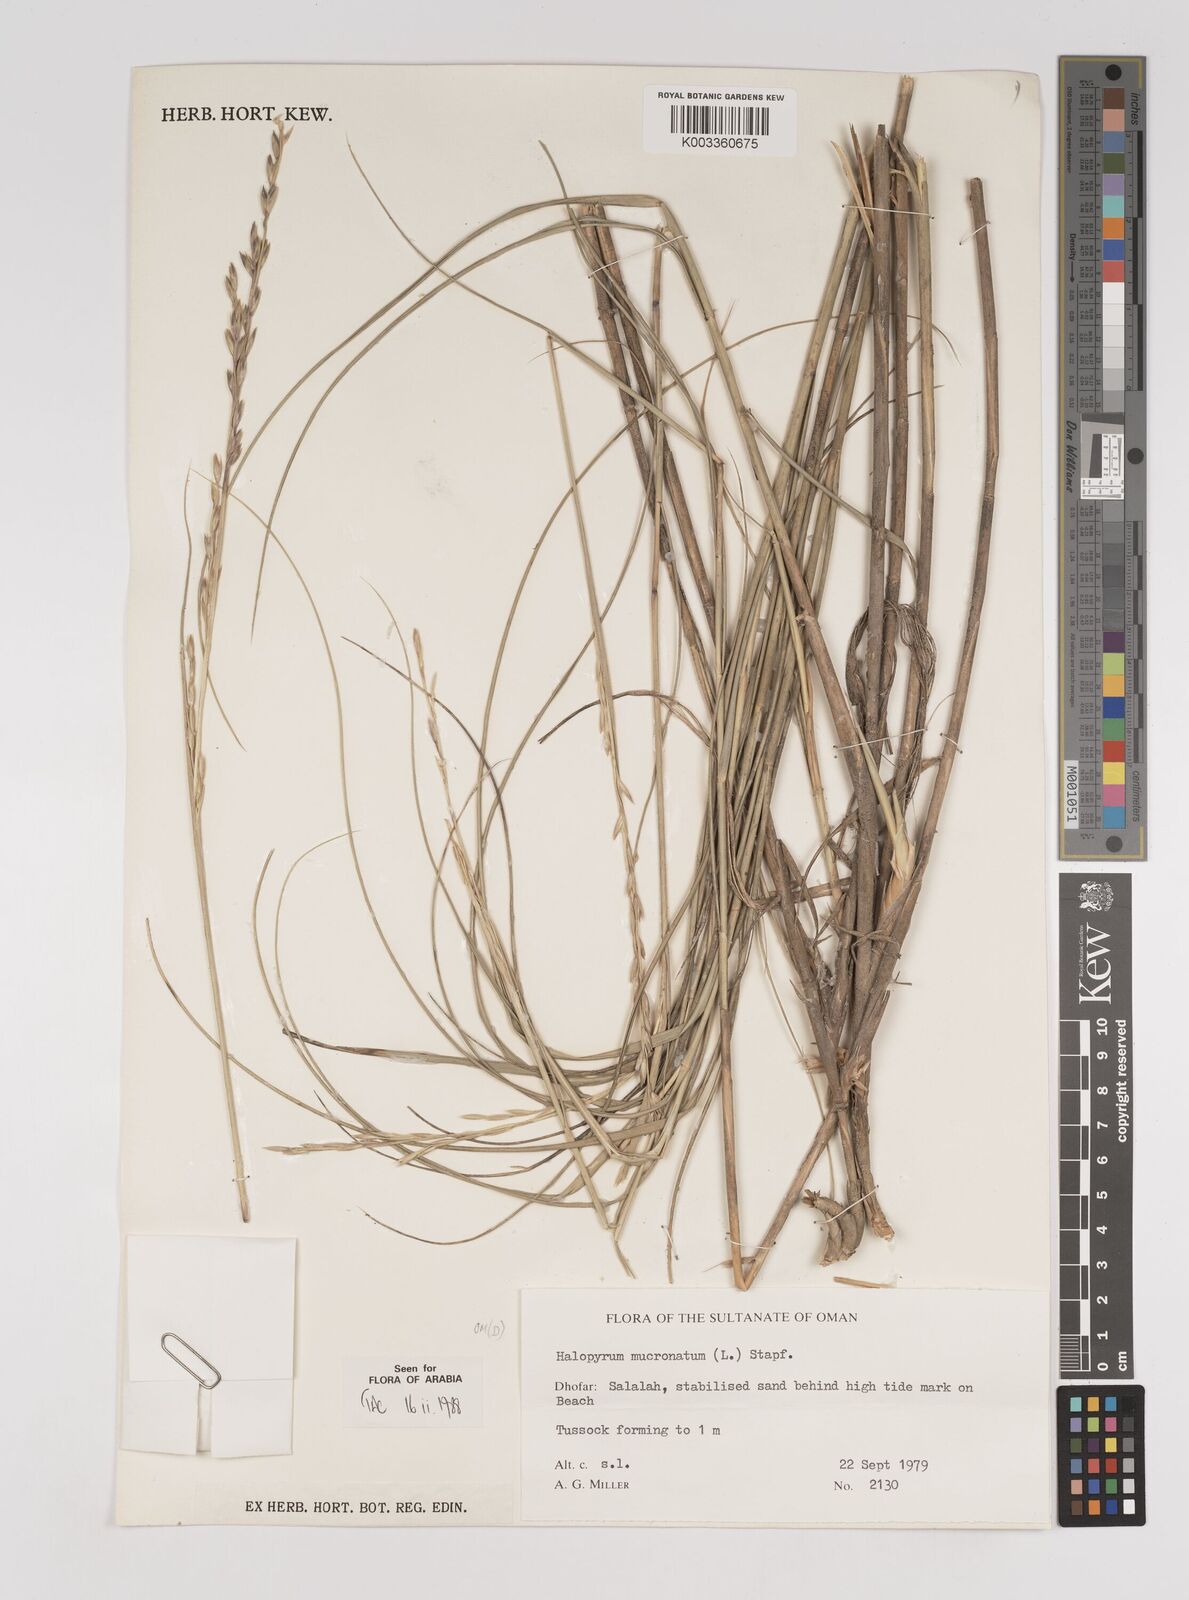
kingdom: Plantae
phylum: Tracheophyta
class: Liliopsida
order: Poales
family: Poaceae
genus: Halopyrum
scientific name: Halopyrum mucronatum
